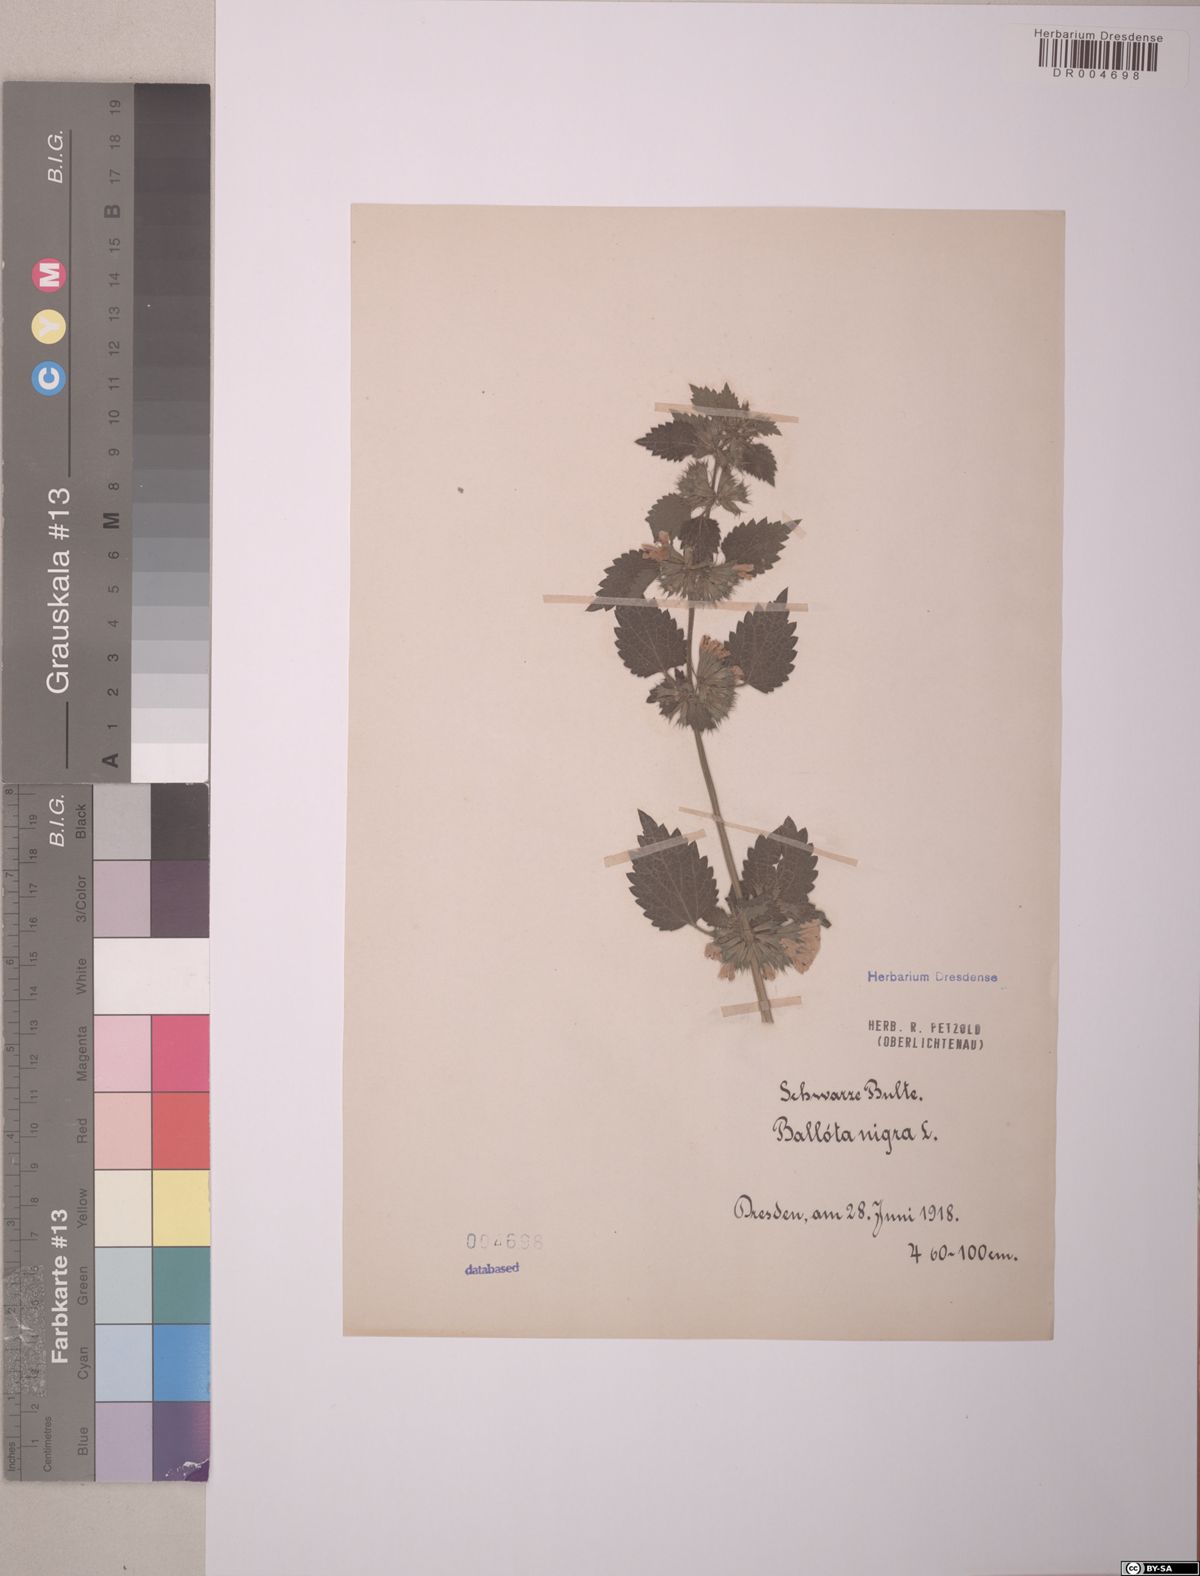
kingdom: Plantae
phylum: Tracheophyta
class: Magnoliopsida
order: Lamiales
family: Lamiaceae
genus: Ballota
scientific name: Ballota nigra
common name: Black horehound
